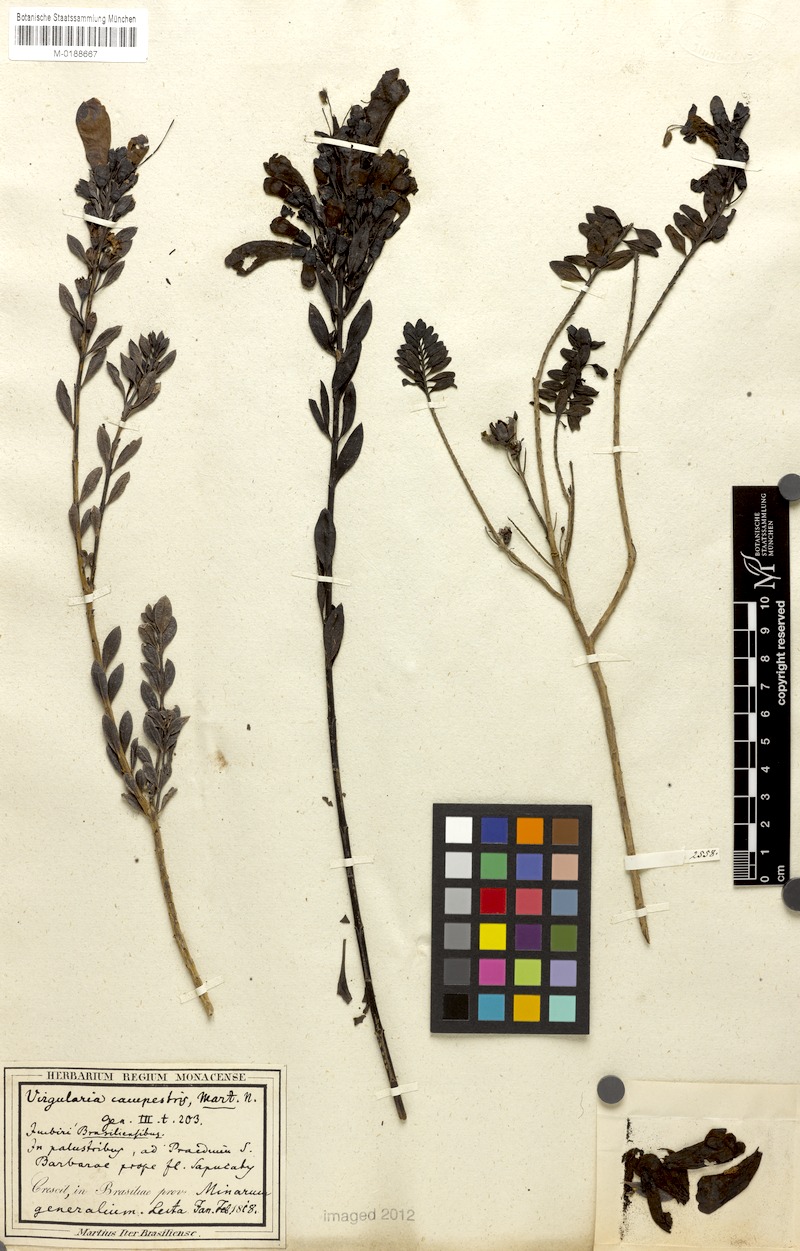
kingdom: Plantae
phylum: Tracheophyta
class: Magnoliopsida
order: Lamiales
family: Orobanchaceae
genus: Esterhazya
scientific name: Esterhazya splendida
